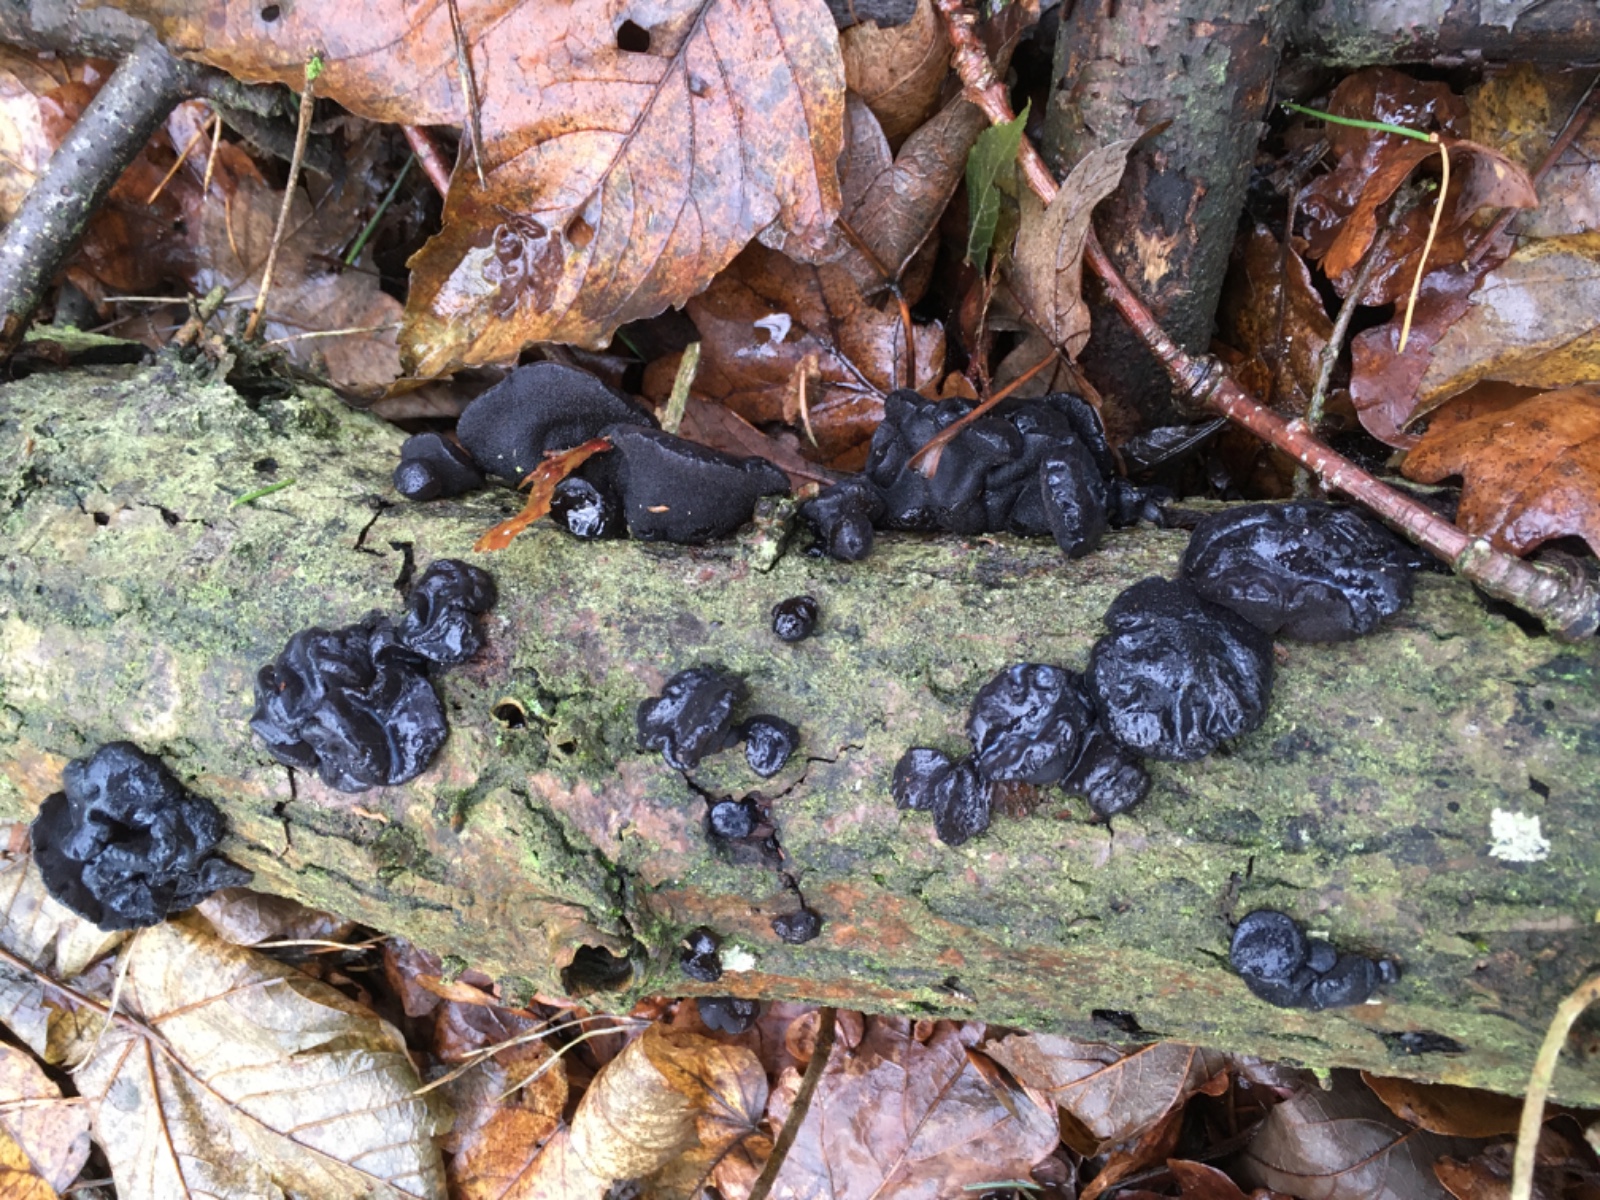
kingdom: Fungi
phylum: Basidiomycota
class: Agaricomycetes
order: Auriculariales
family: Auriculariaceae
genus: Exidia
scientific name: Exidia glandulosa
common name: ege-bævretop
